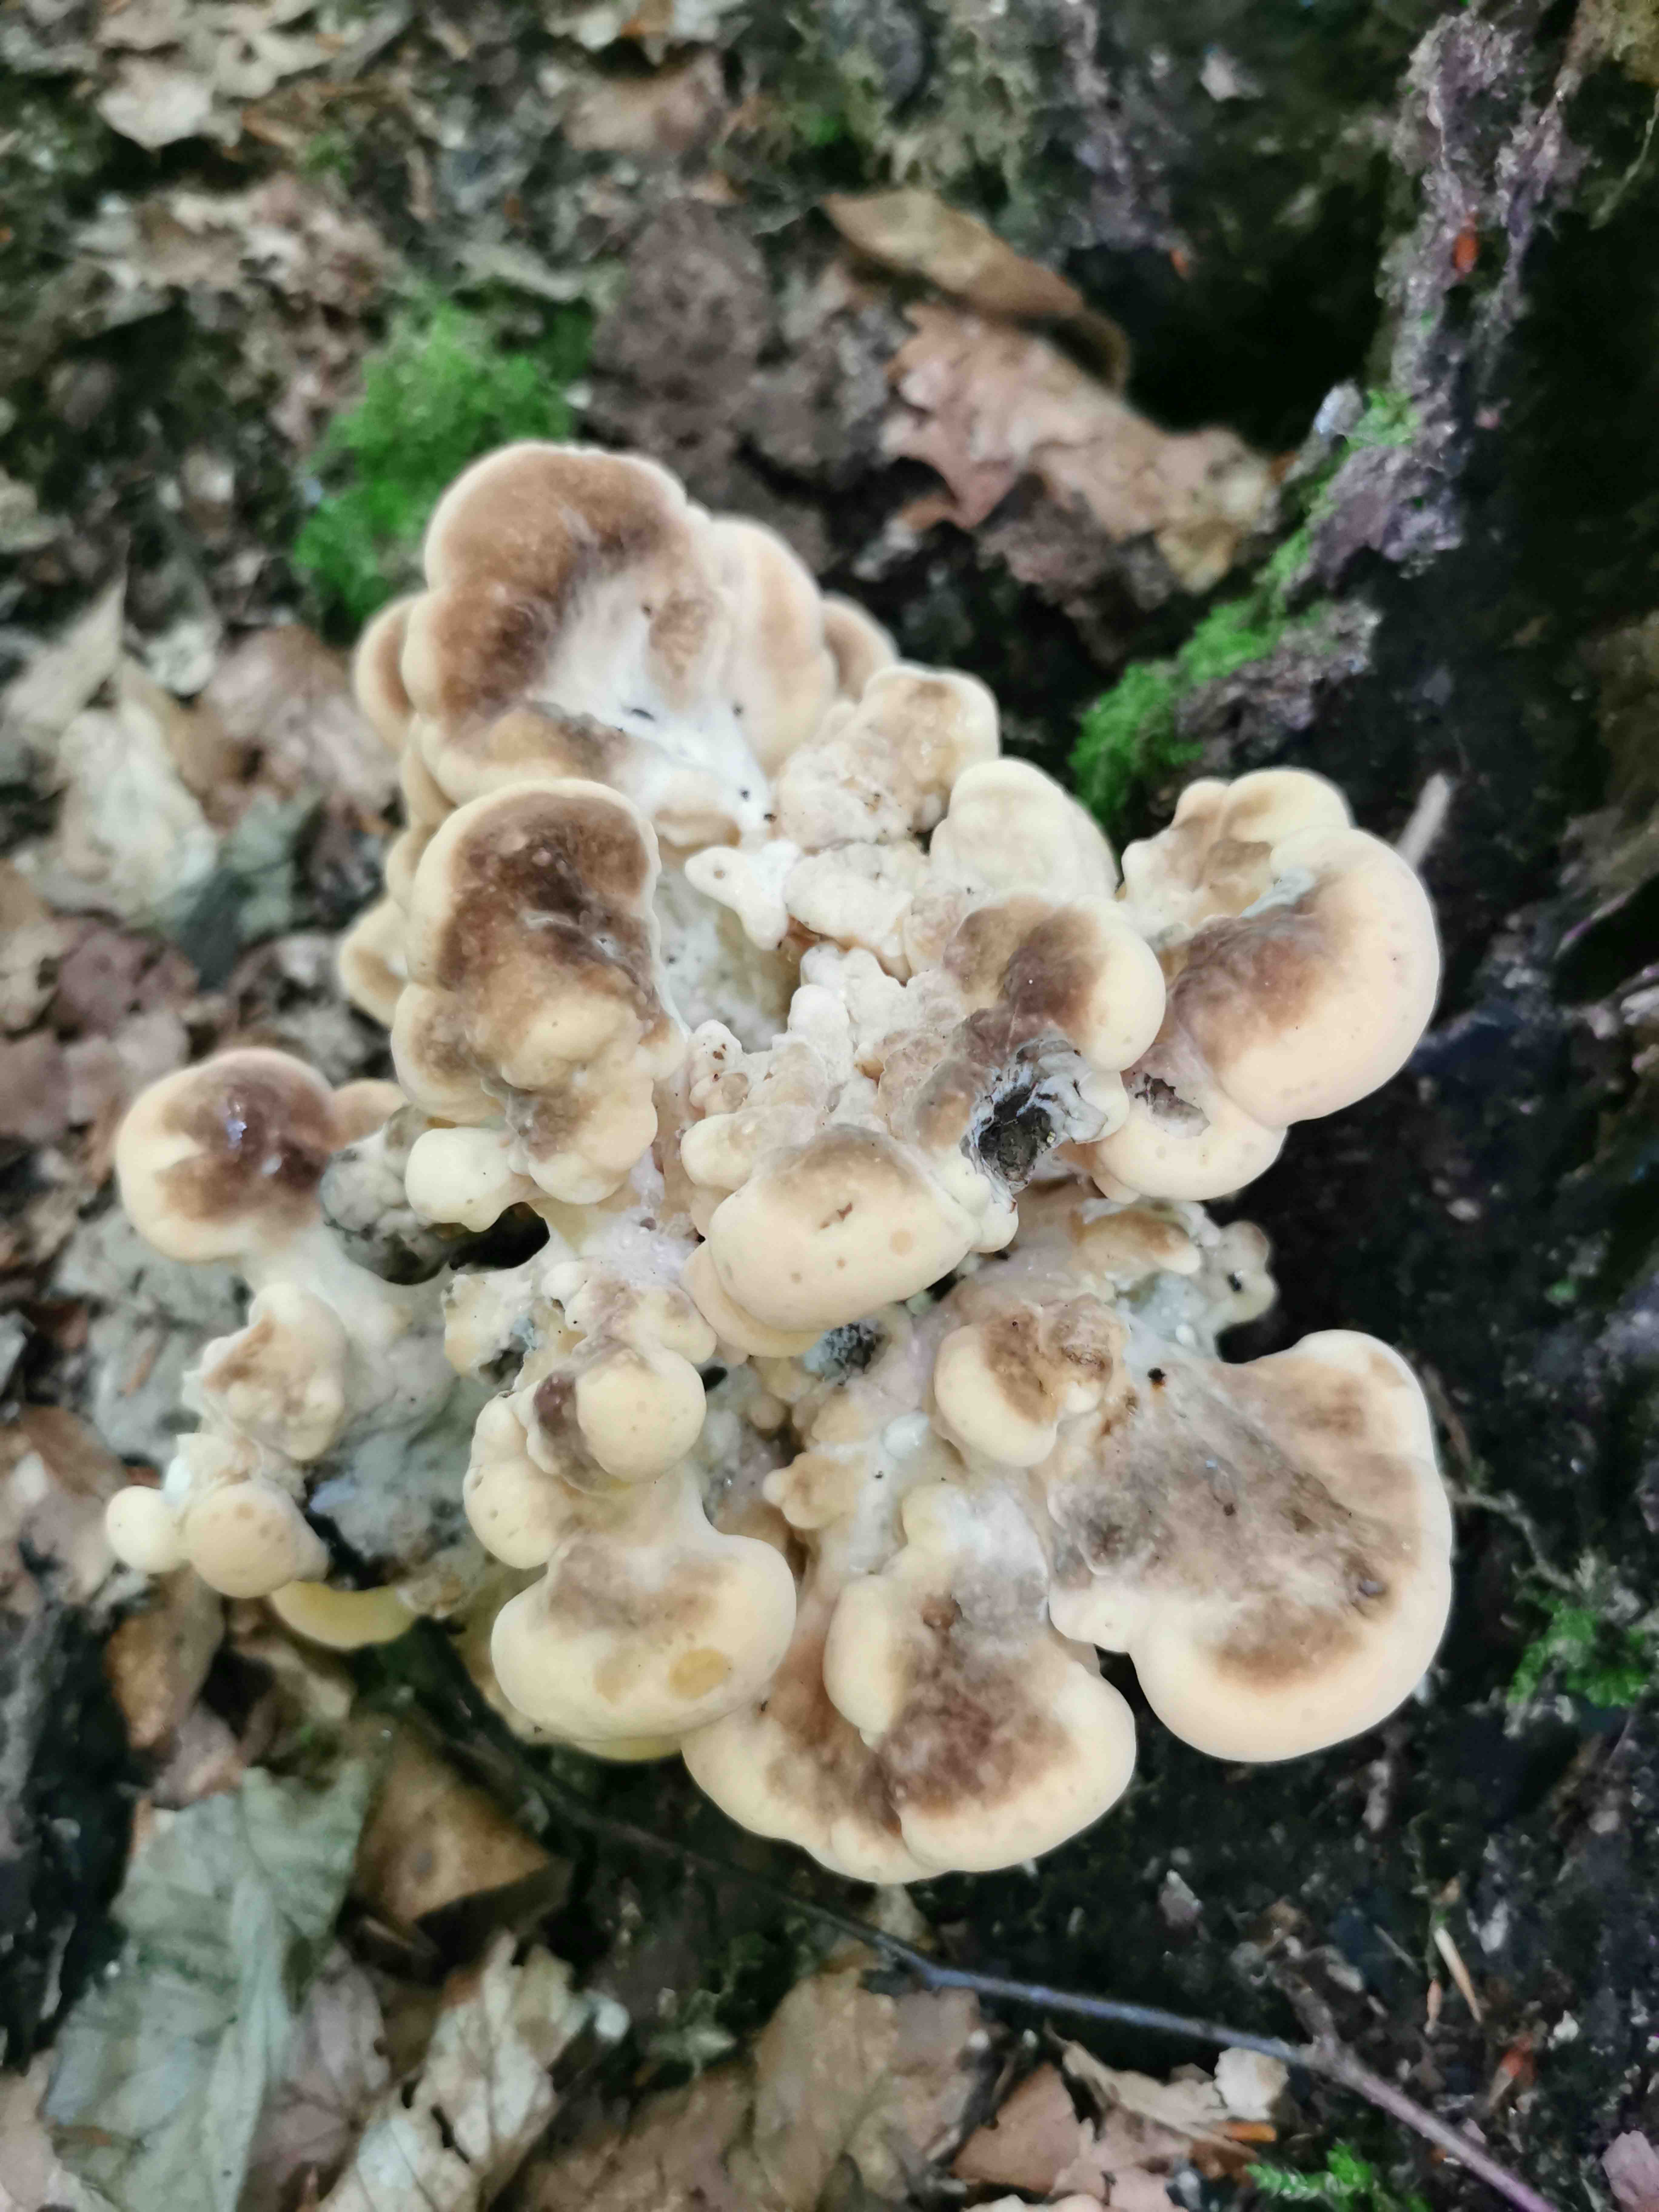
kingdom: Fungi
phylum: Basidiomycota
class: Agaricomycetes
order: Polyporales
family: Meripilaceae
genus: Meripilus
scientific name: Meripilus giganteus
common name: kæmpeporesvamp
